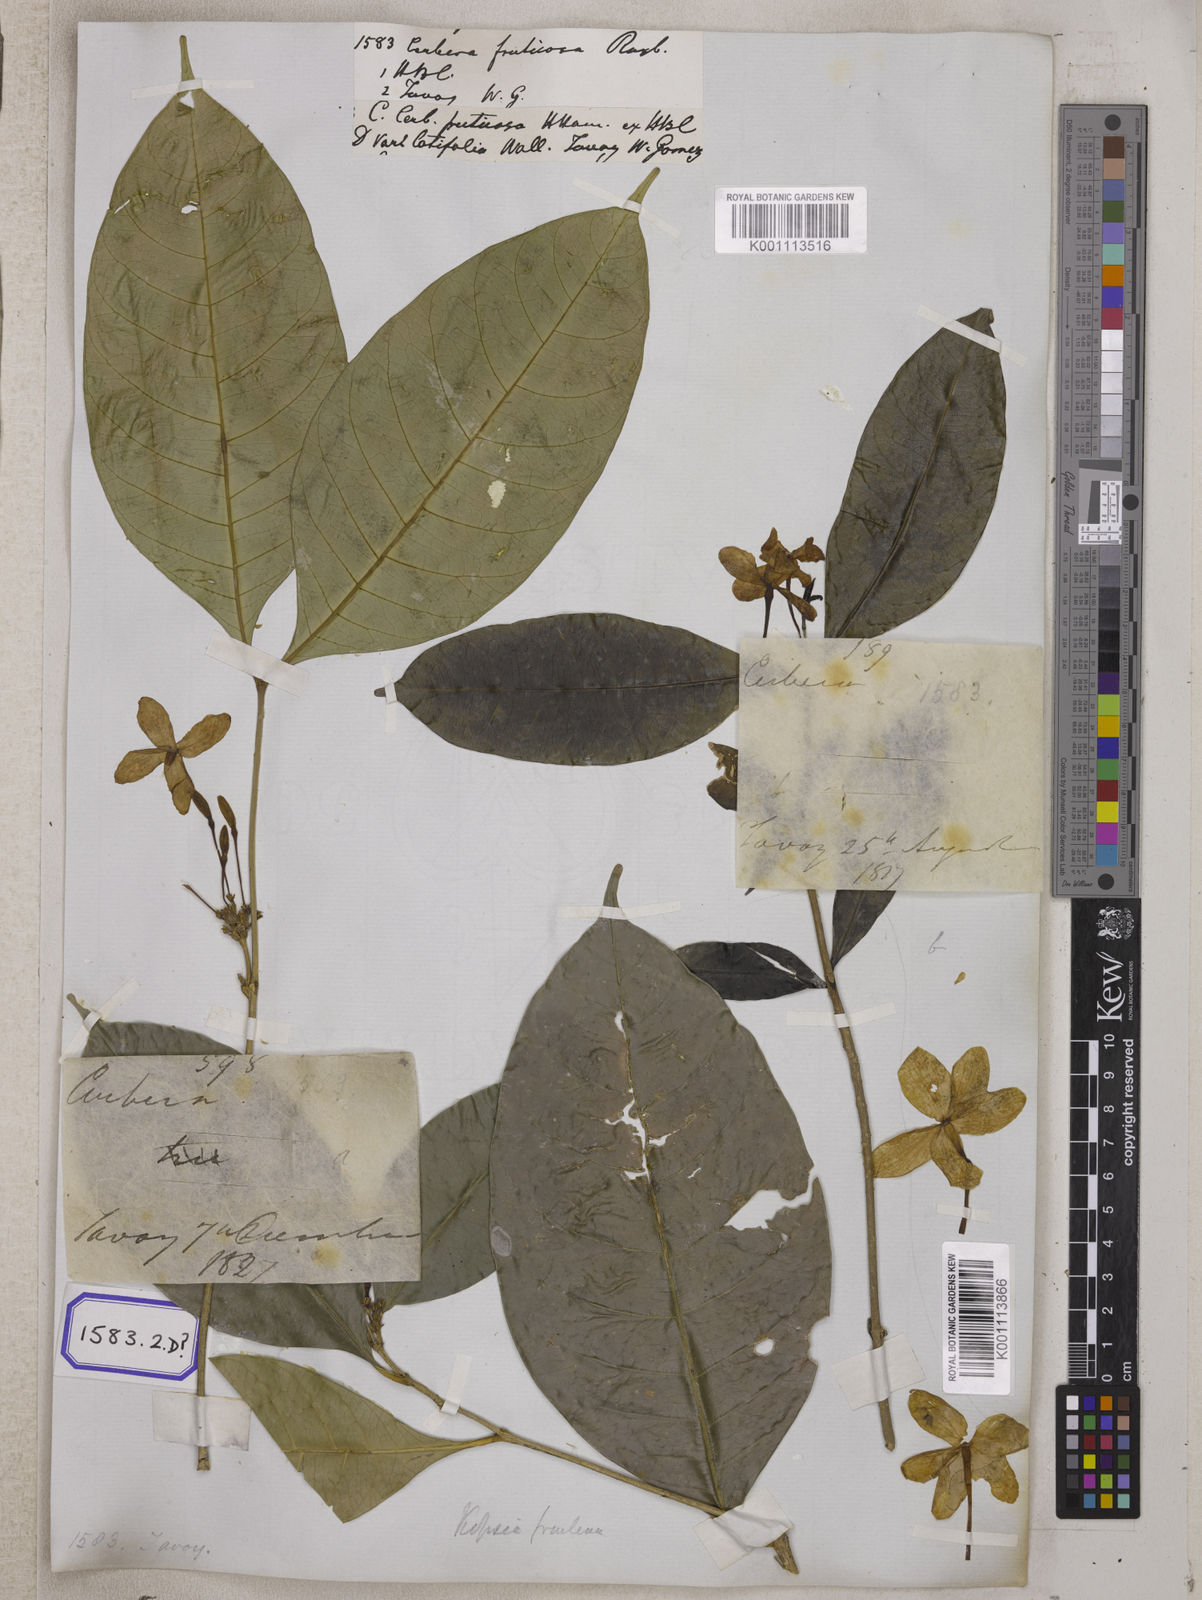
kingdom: Plantae
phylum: Tracheophyta
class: Magnoliopsida
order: Gentianales
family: Apocynaceae
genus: Kopsia
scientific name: Kopsia fruticosa
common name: Shrub-vinca
